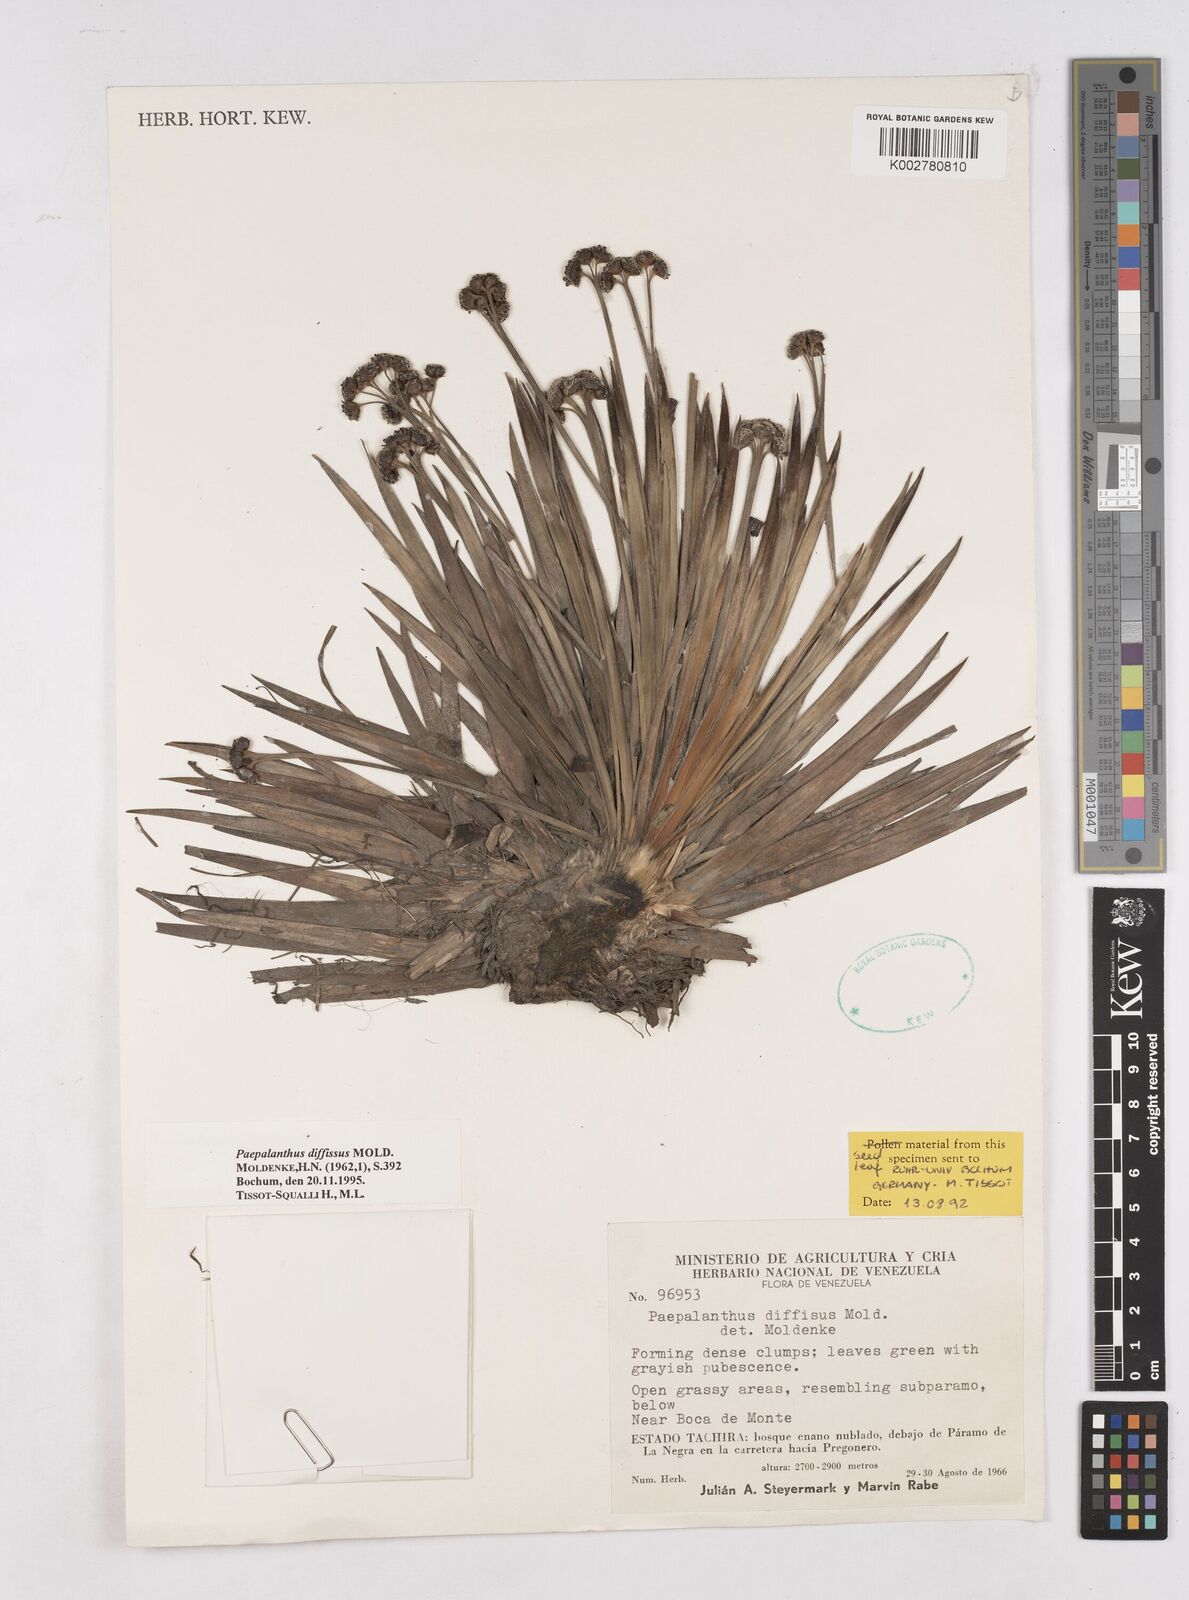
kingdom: Plantae
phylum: Tracheophyta
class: Liliopsida
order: Poales
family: Eriocaulaceae
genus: Paepalanthus
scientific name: Paepalanthus diffissus
